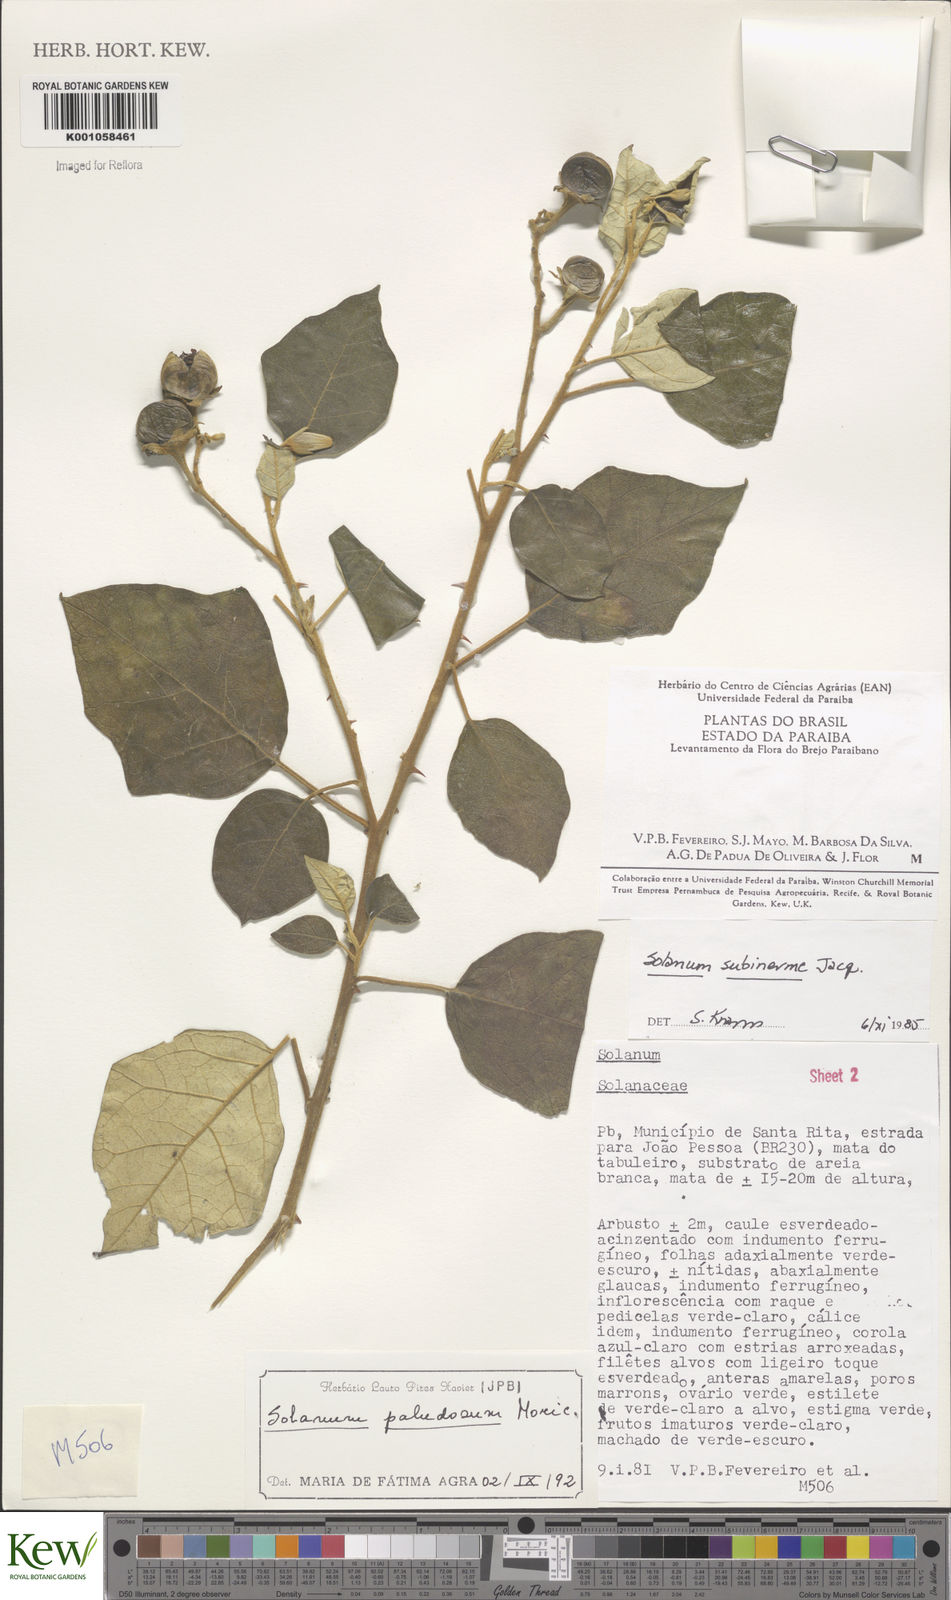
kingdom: Plantae
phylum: Tracheophyta
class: Magnoliopsida
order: Solanales
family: Solanaceae
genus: Solanum
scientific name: Solanum paludosum
